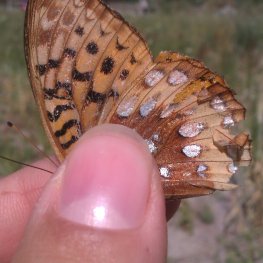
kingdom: Animalia
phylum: Arthropoda
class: Insecta
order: Lepidoptera
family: Nymphalidae
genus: Speyeria
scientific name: Speyeria cybele
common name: Great Spangled Fritillary
